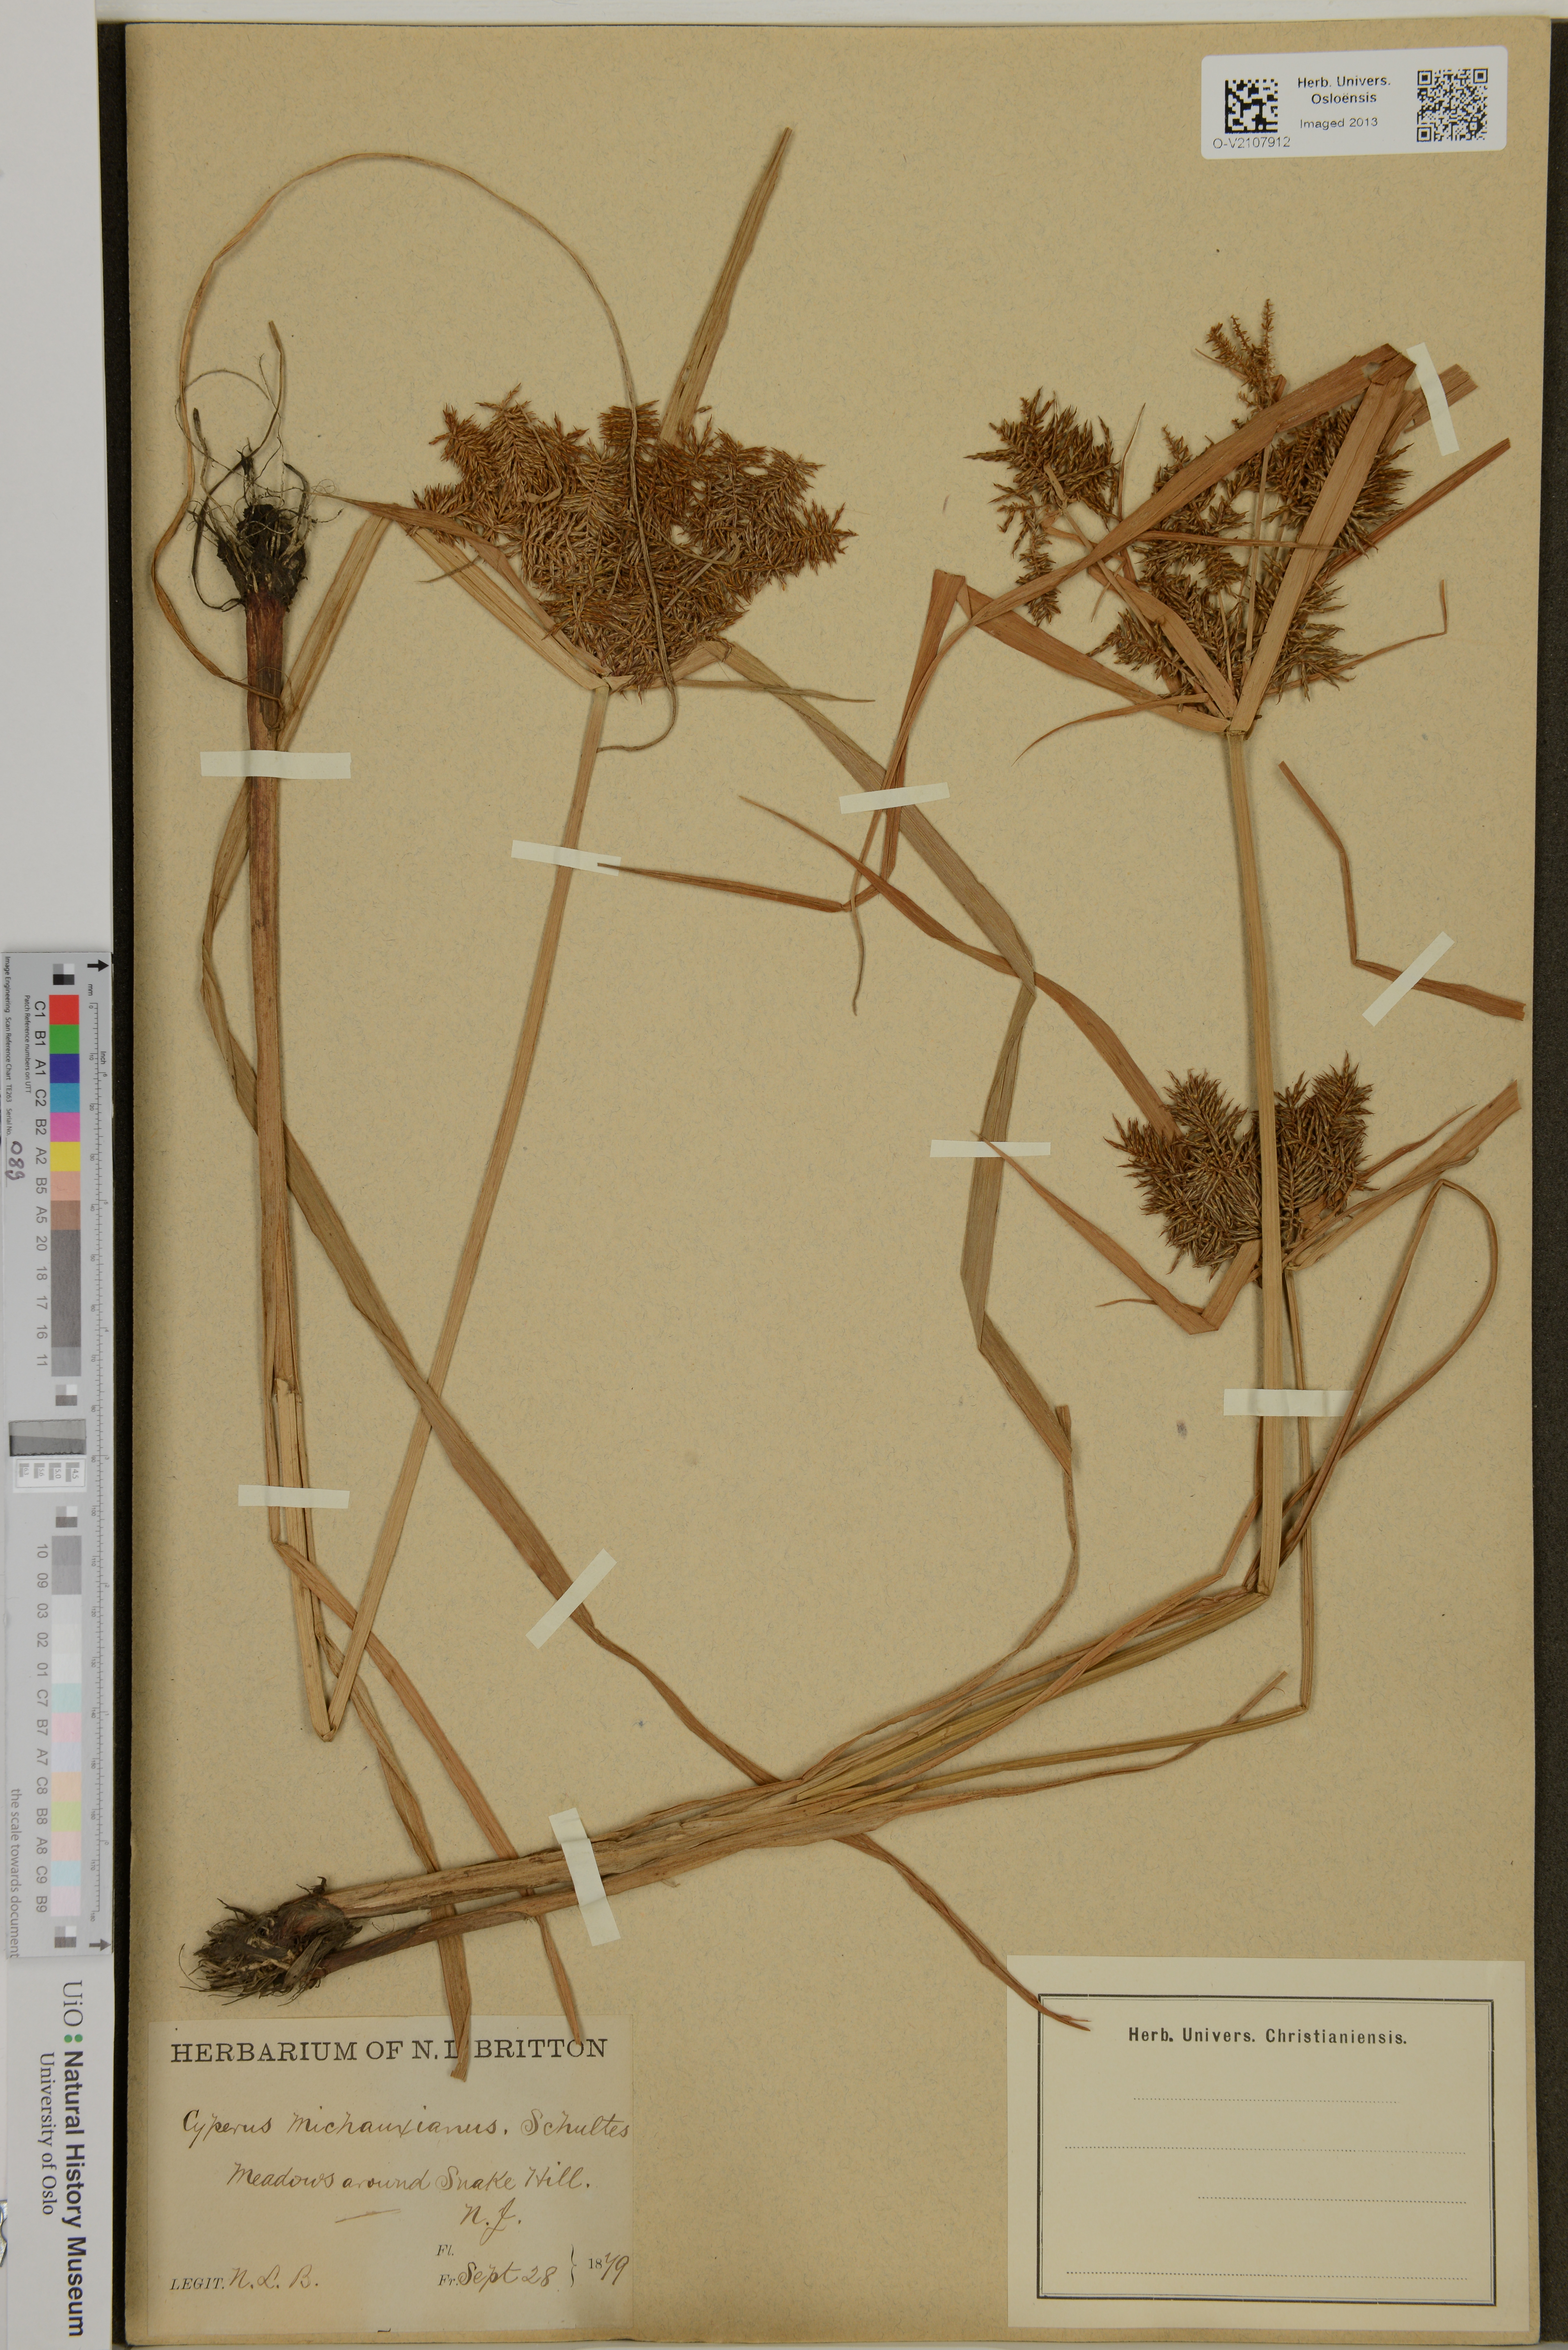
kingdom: Plantae
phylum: Tracheophyta
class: Liliopsida
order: Poales
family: Cyperaceae
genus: Cyperus
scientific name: Cyperus odoratus
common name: Fragrant flatsedge
